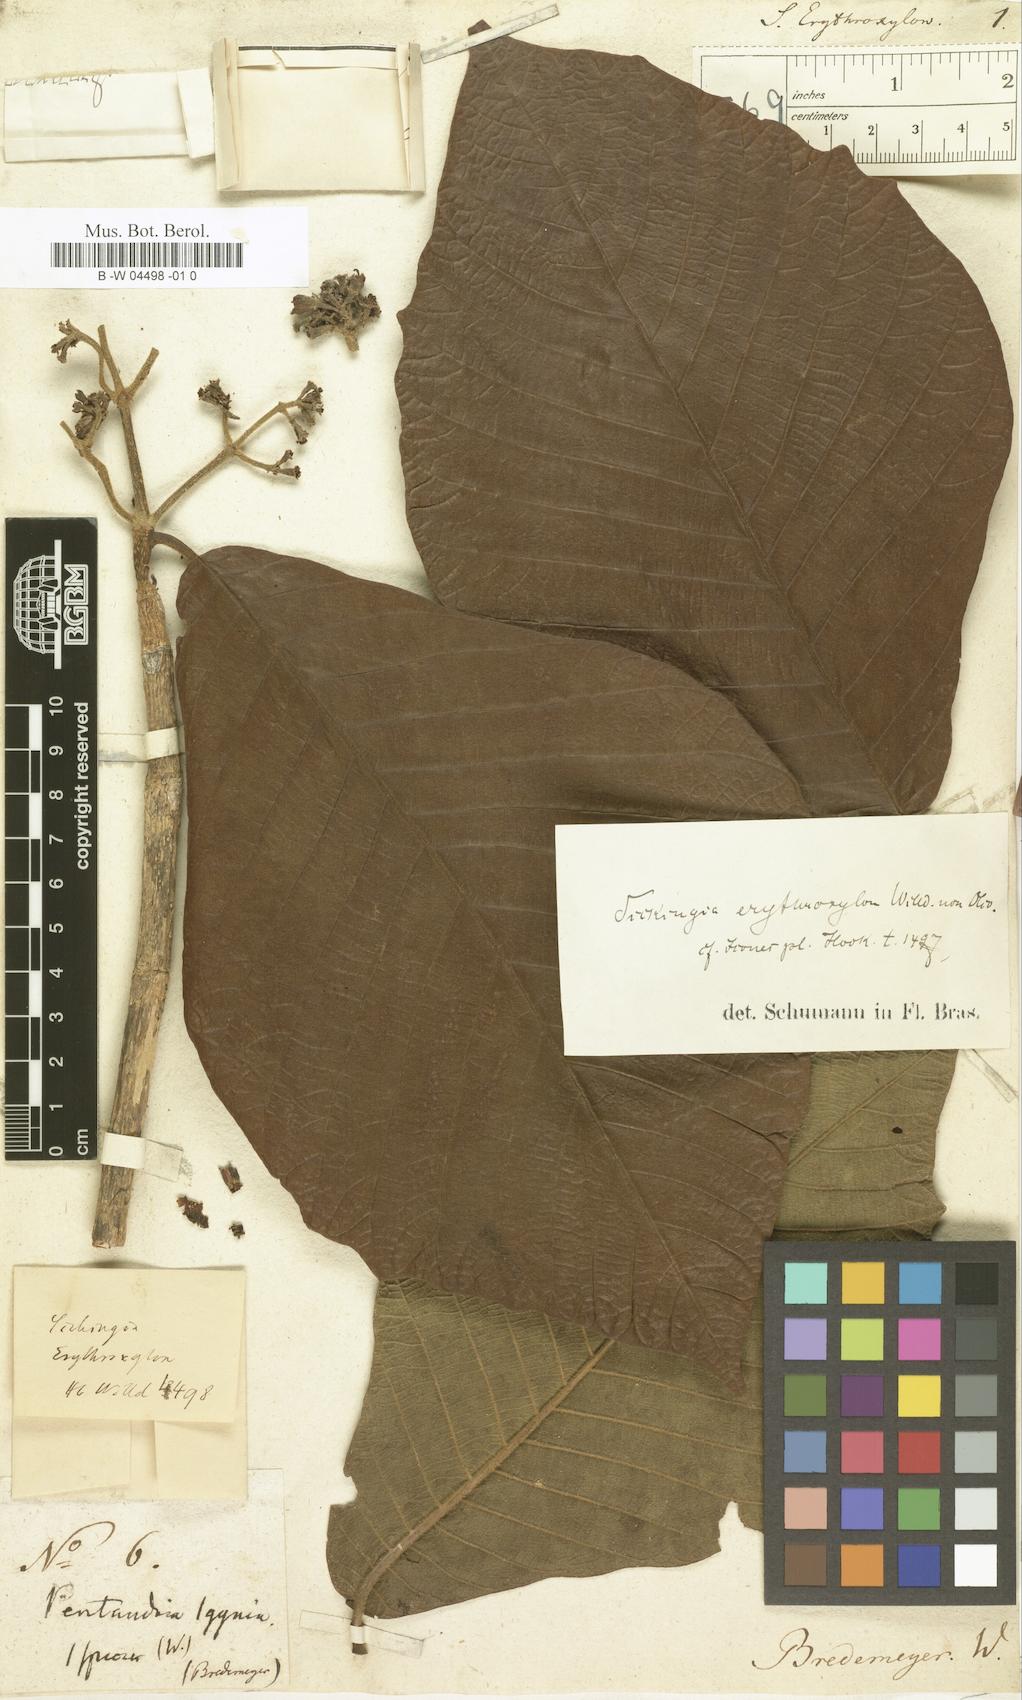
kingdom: Plantae
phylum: Tracheophyta
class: Magnoliopsida
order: Gentianales
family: Rubiaceae
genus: Simira
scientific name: Simira erythroxylon
